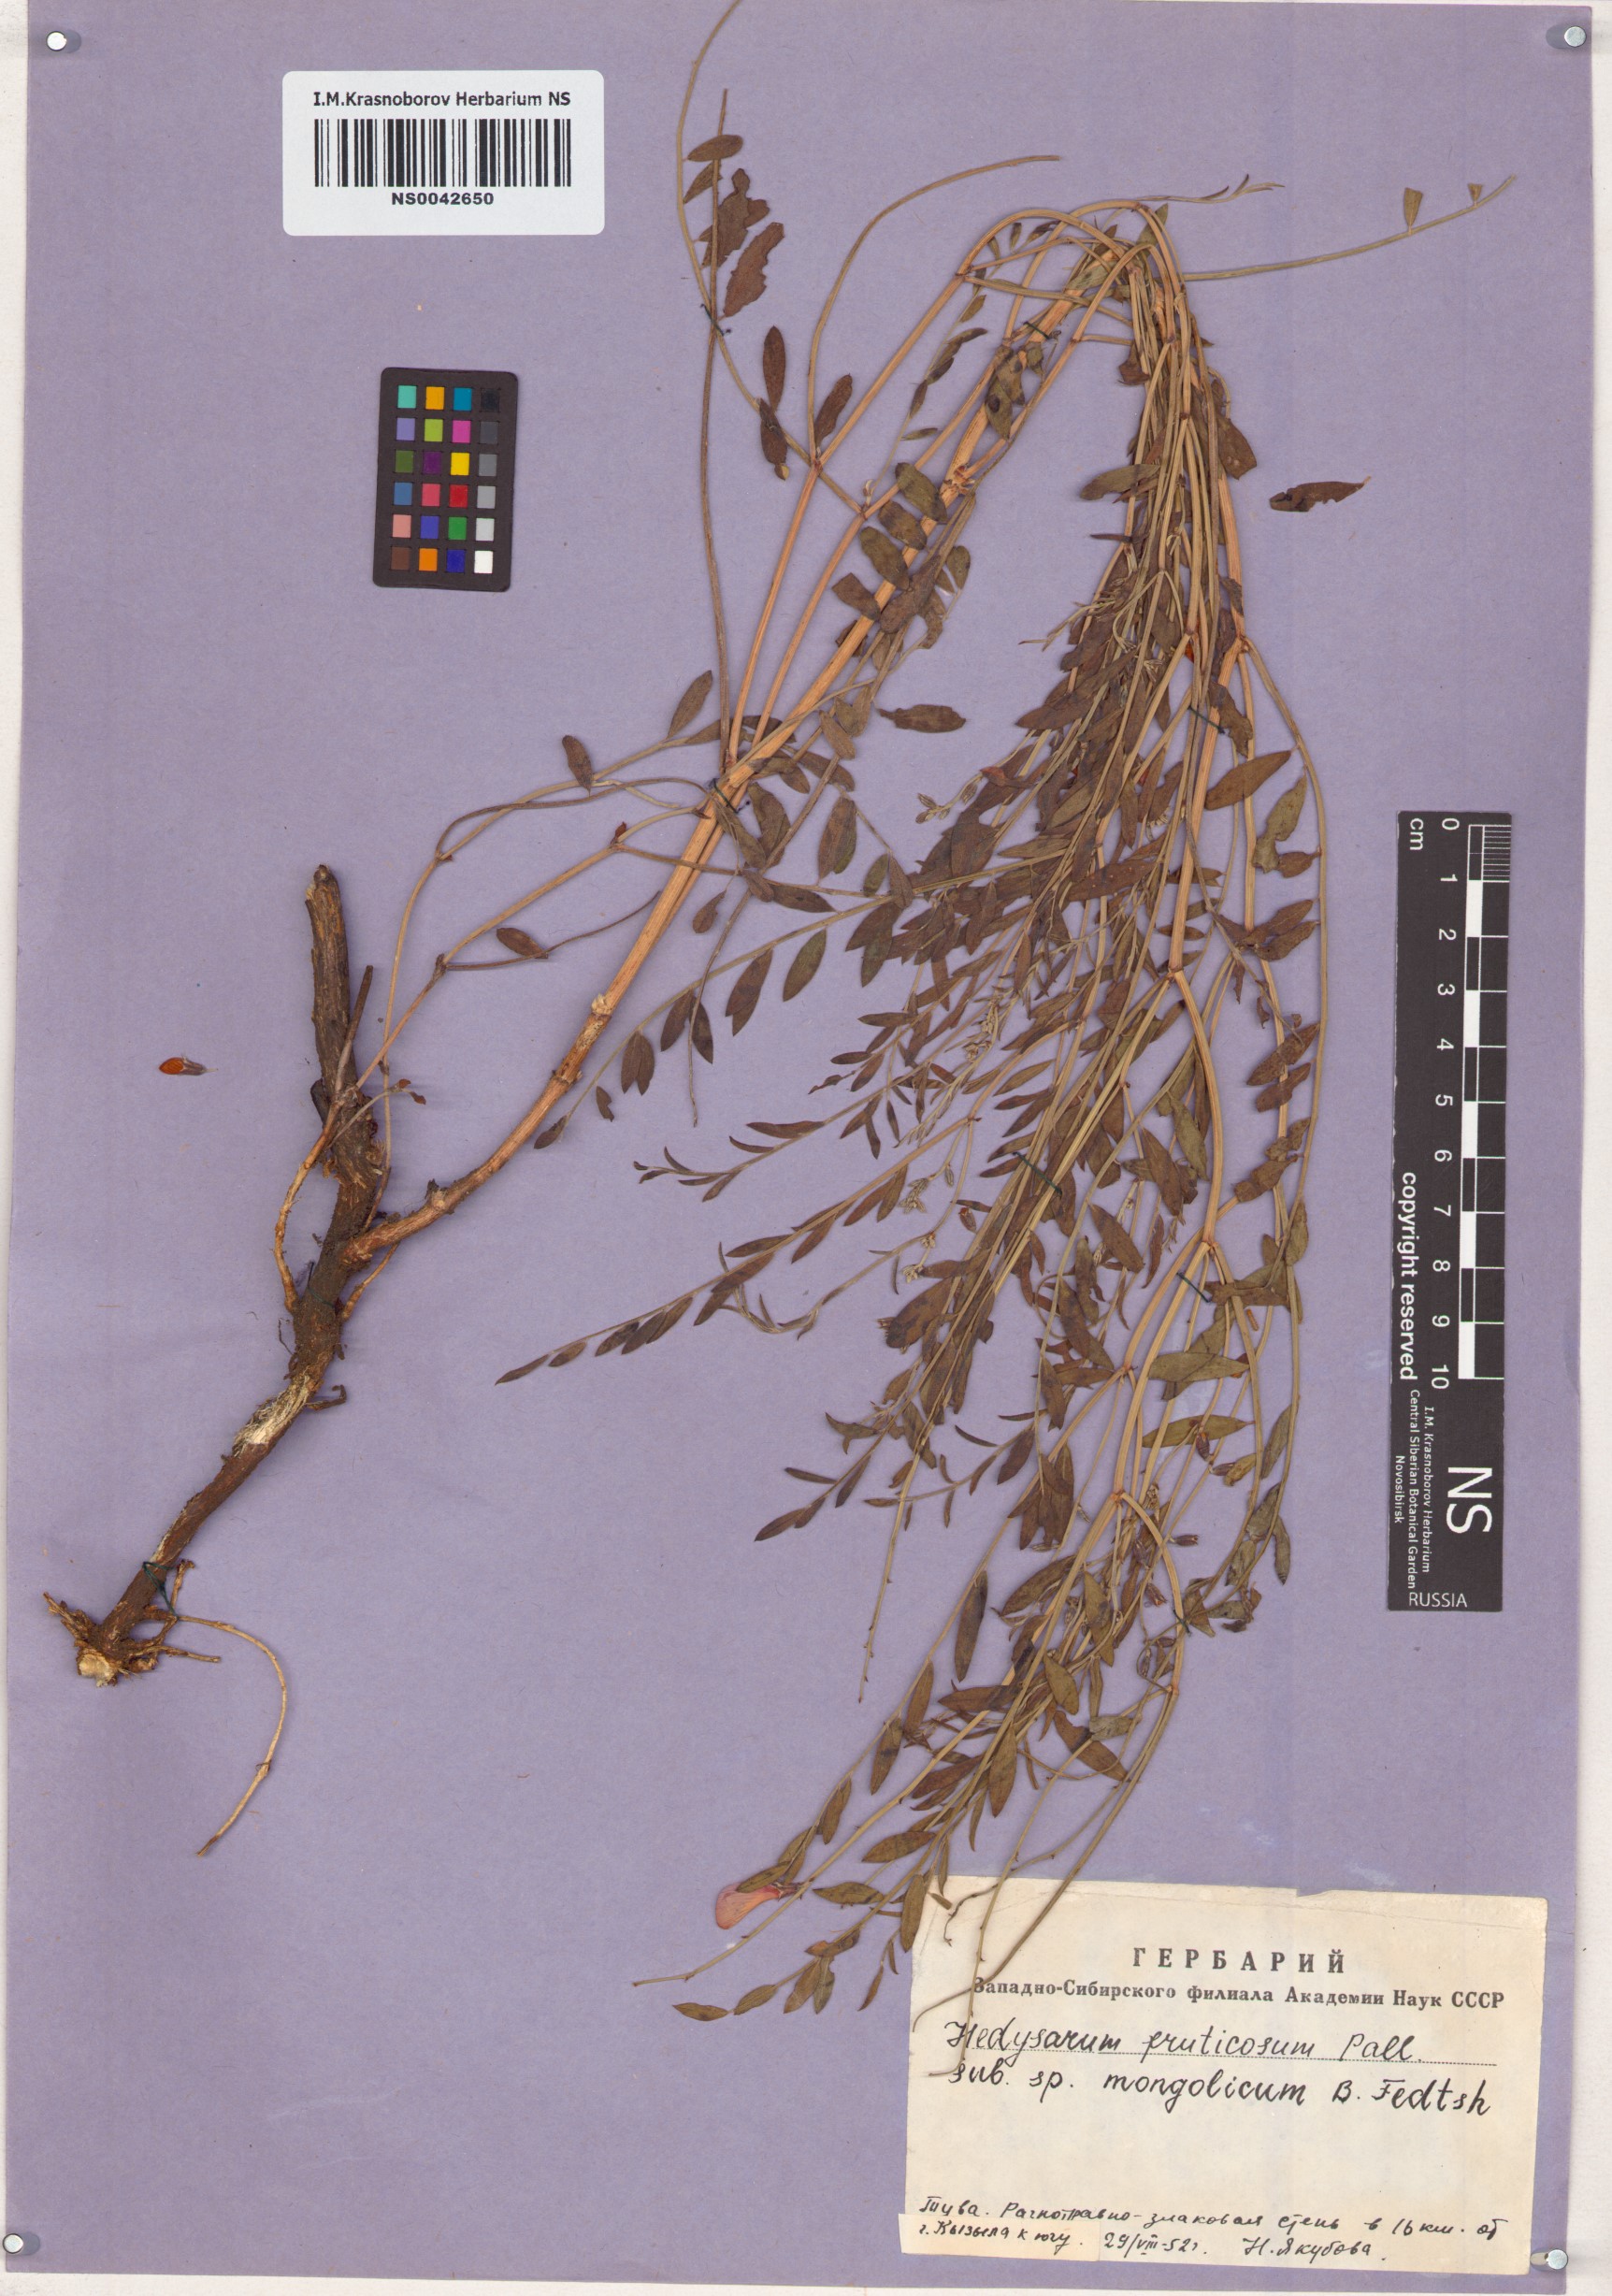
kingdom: Plantae
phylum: Tracheophyta
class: Magnoliopsida
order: Fabales
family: Fabaceae
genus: Corethrodendron
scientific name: Corethrodendron fruticosum
